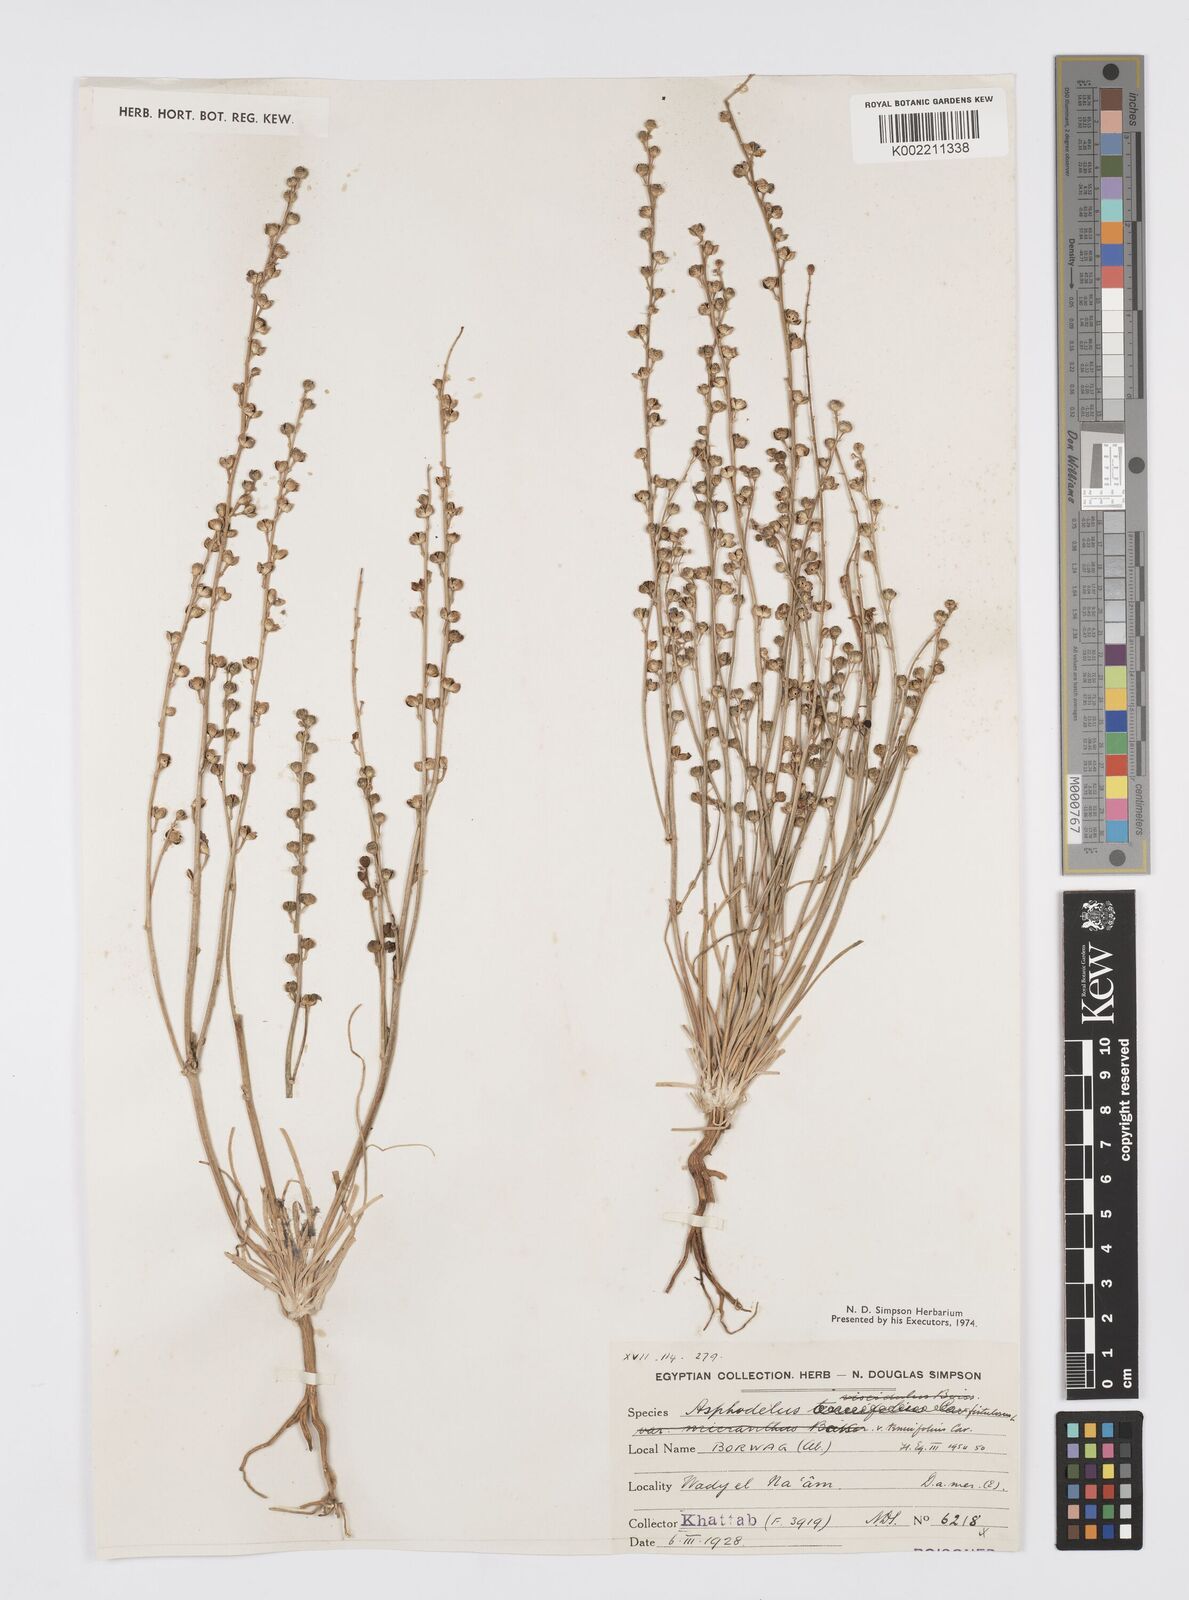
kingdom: Plantae
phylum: Tracheophyta
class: Liliopsida
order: Asparagales
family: Asphodelaceae
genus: Asphodelus
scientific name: Asphodelus tenuifolius
